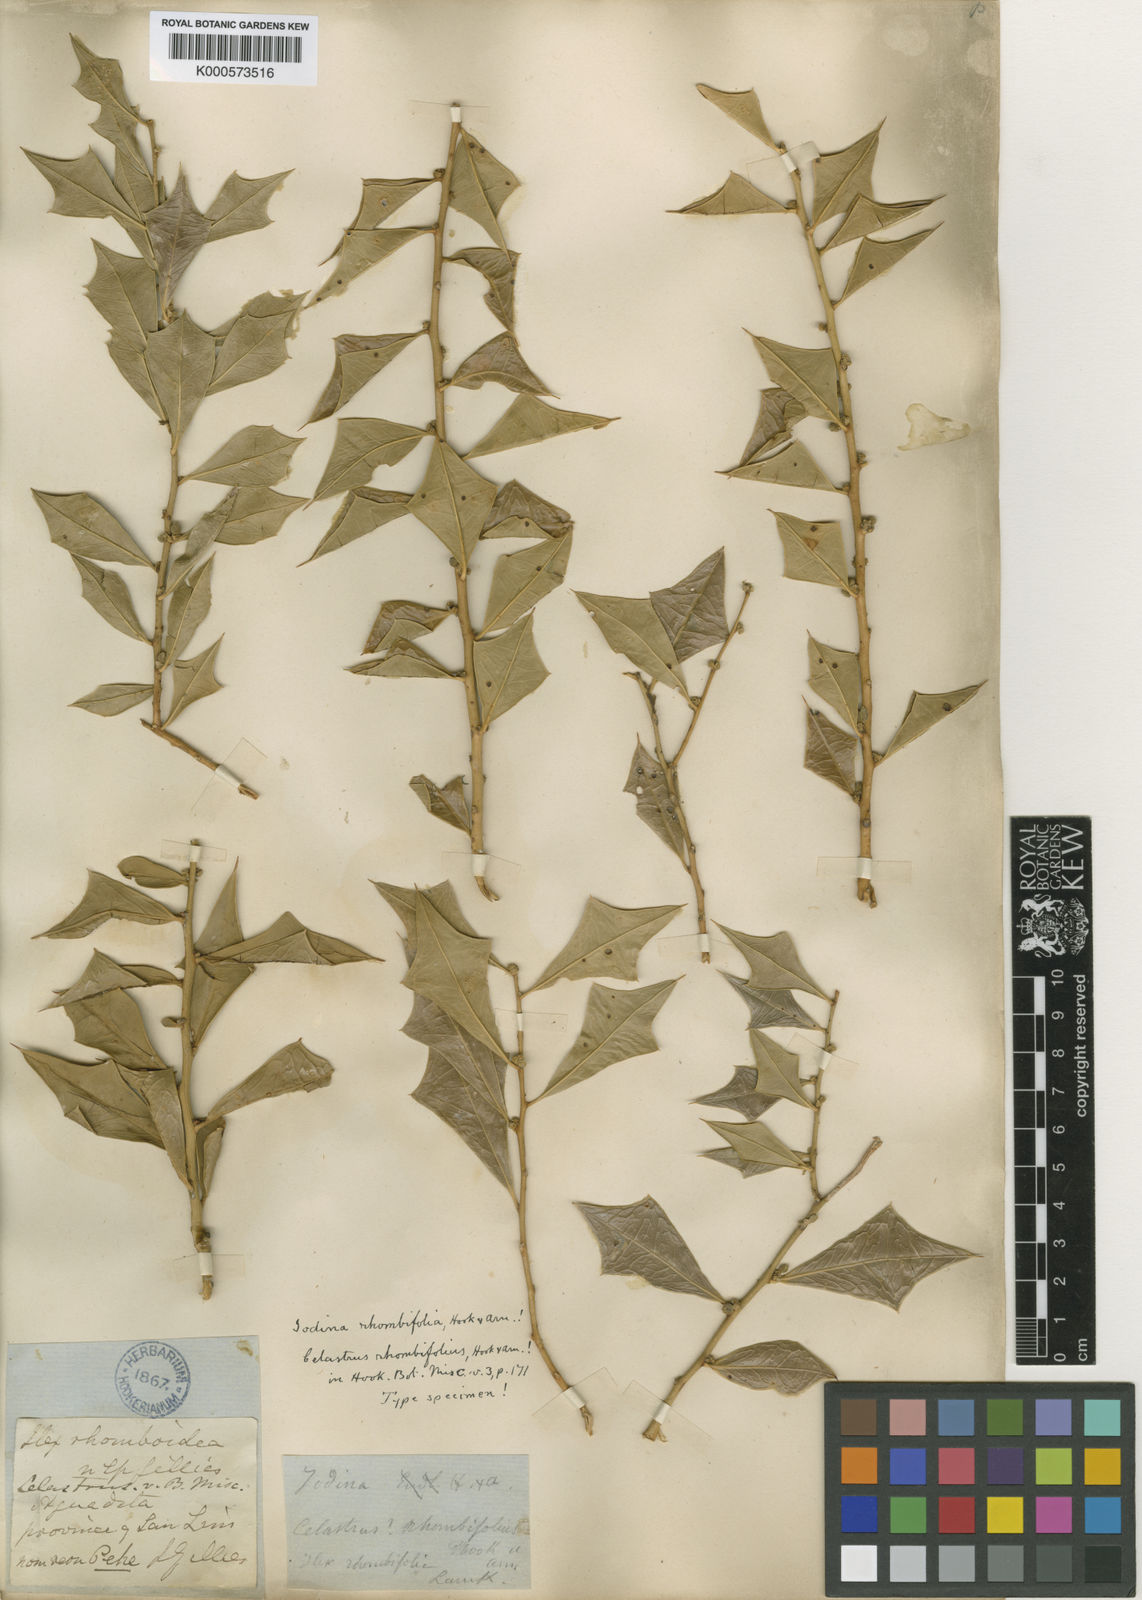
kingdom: Plantae
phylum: Tracheophyta
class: Magnoliopsida
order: Santalales
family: Cervantesiaceae
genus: Jodina
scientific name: Jodina rhombifolia
